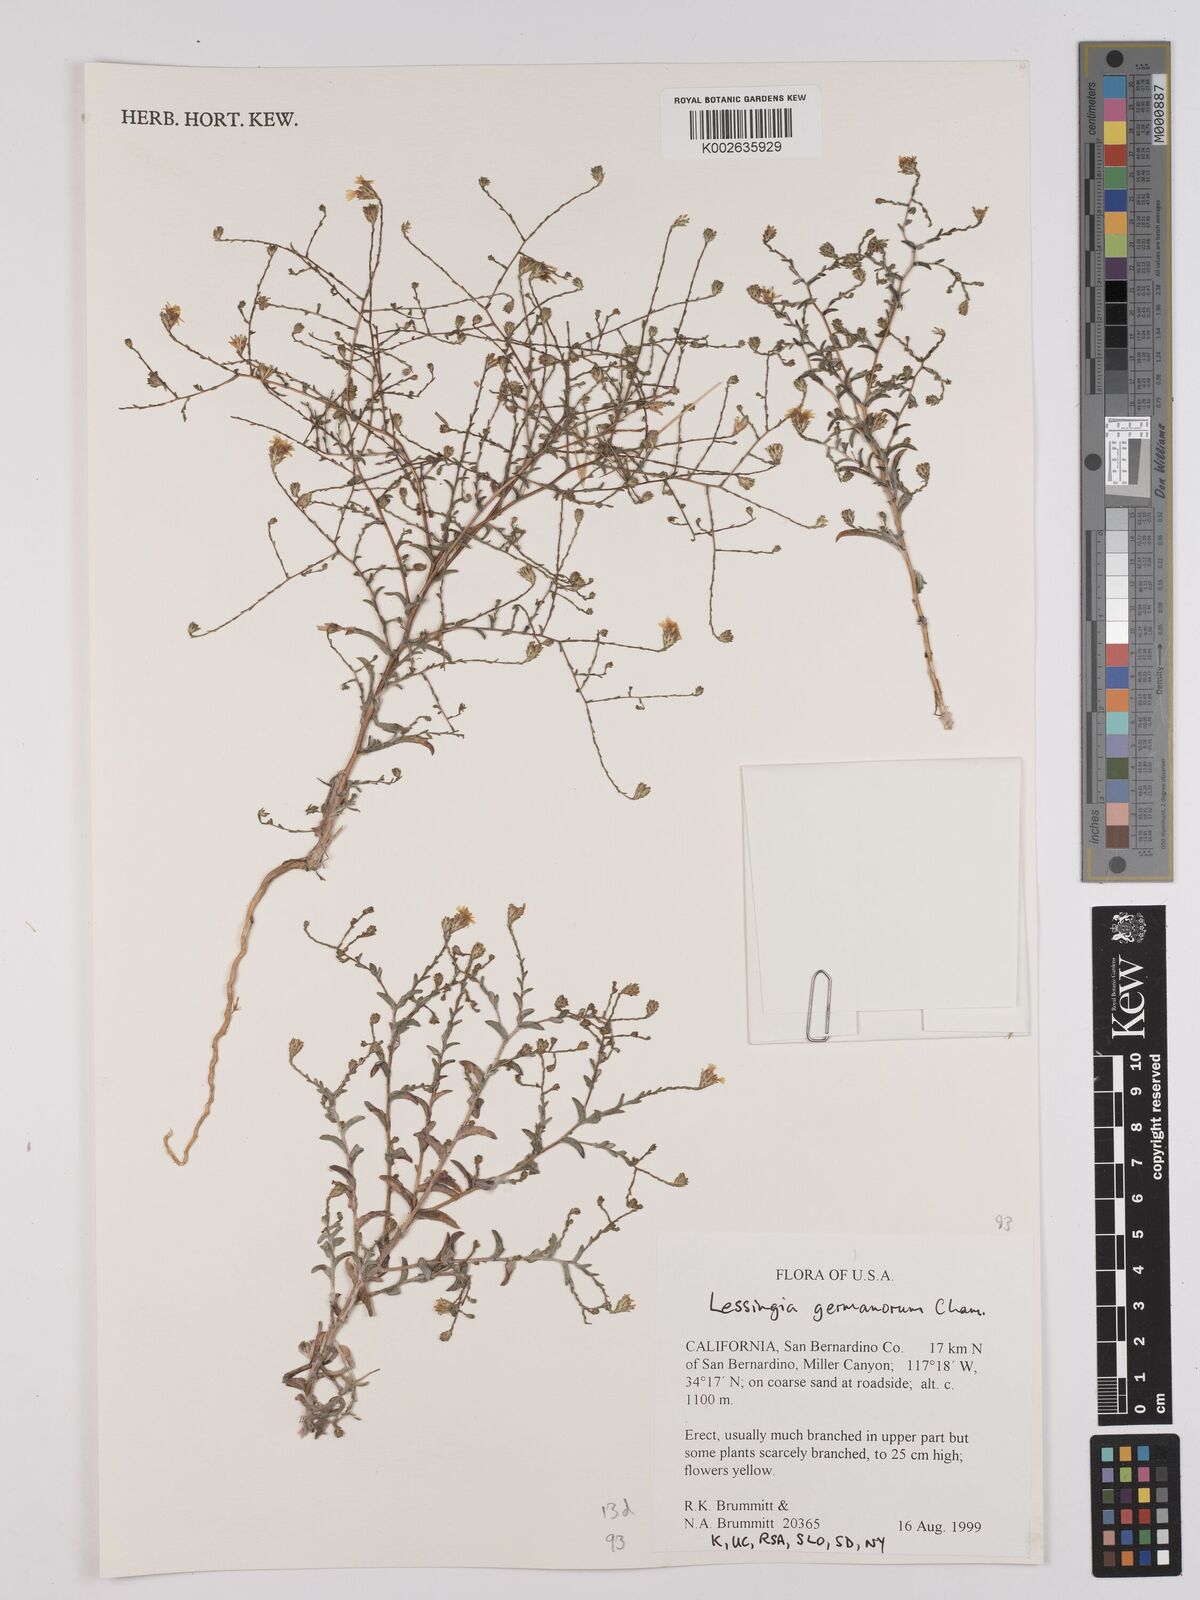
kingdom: Plantae
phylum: Tracheophyta
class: Magnoliopsida
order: Asterales
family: Asteraceae
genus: Lessingia
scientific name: Lessingia germanorum
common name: San francisco lessingia
